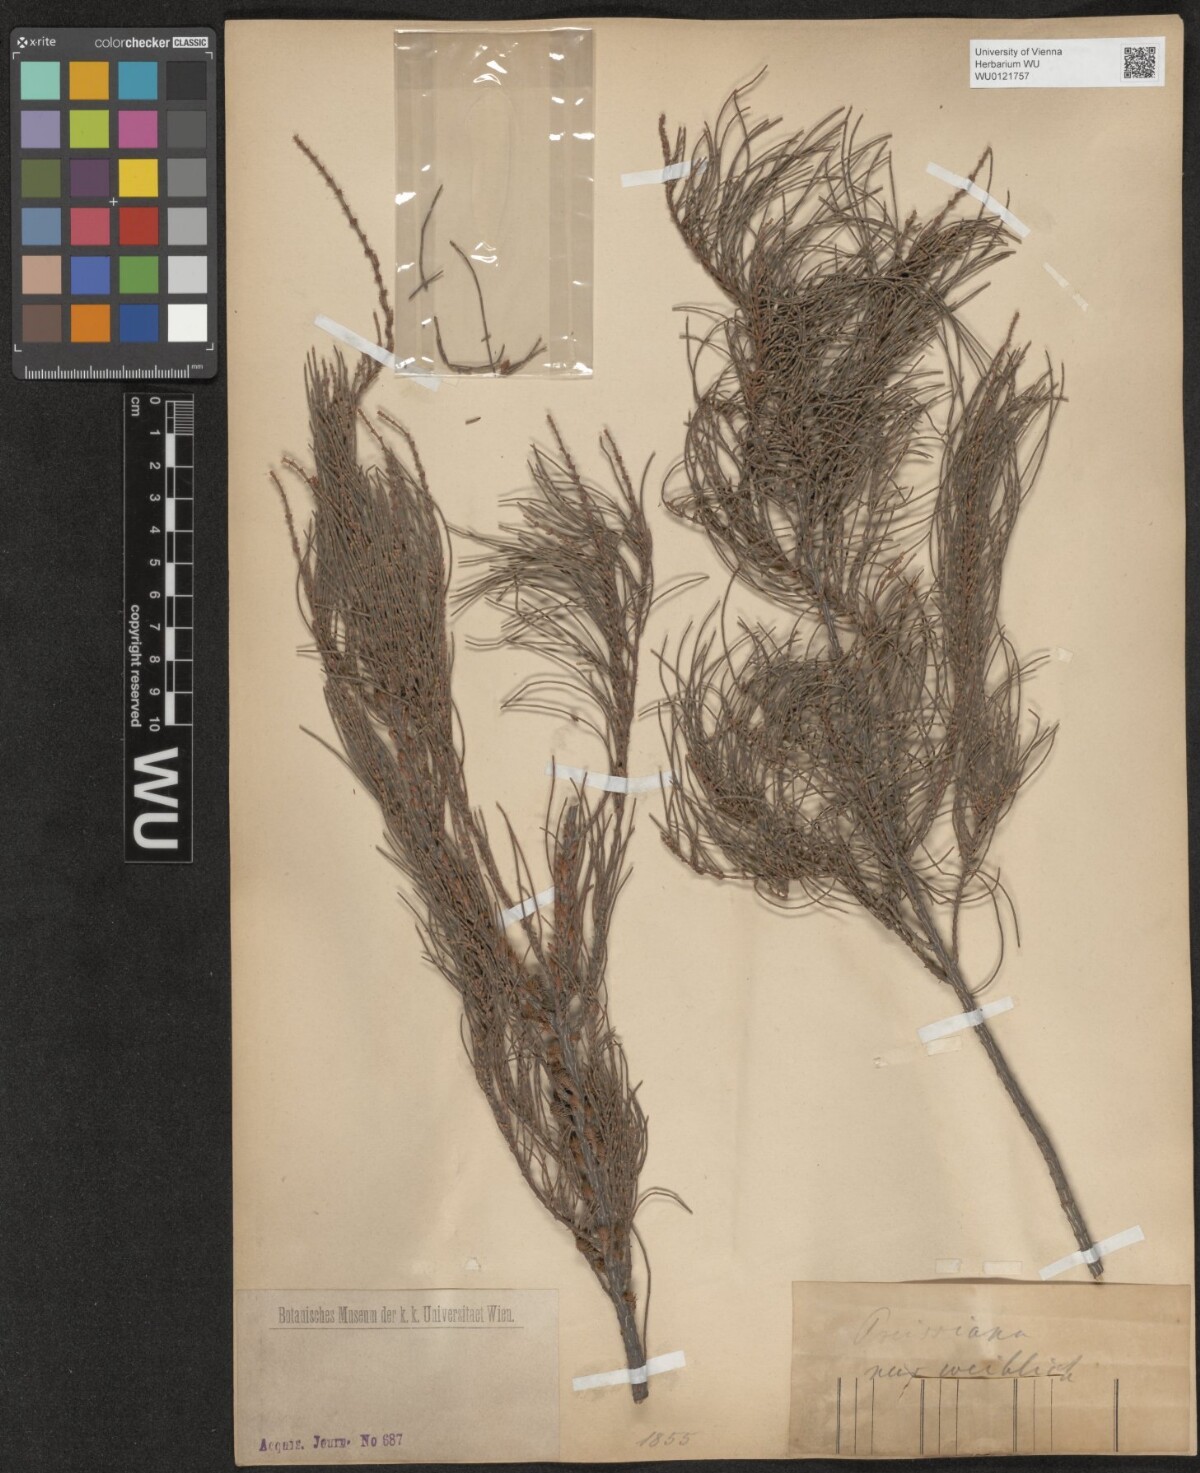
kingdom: Plantae
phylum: Tracheophyta
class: Magnoliopsida
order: Fagales
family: Casuarinaceae
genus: Casuarina
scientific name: Casuarina
